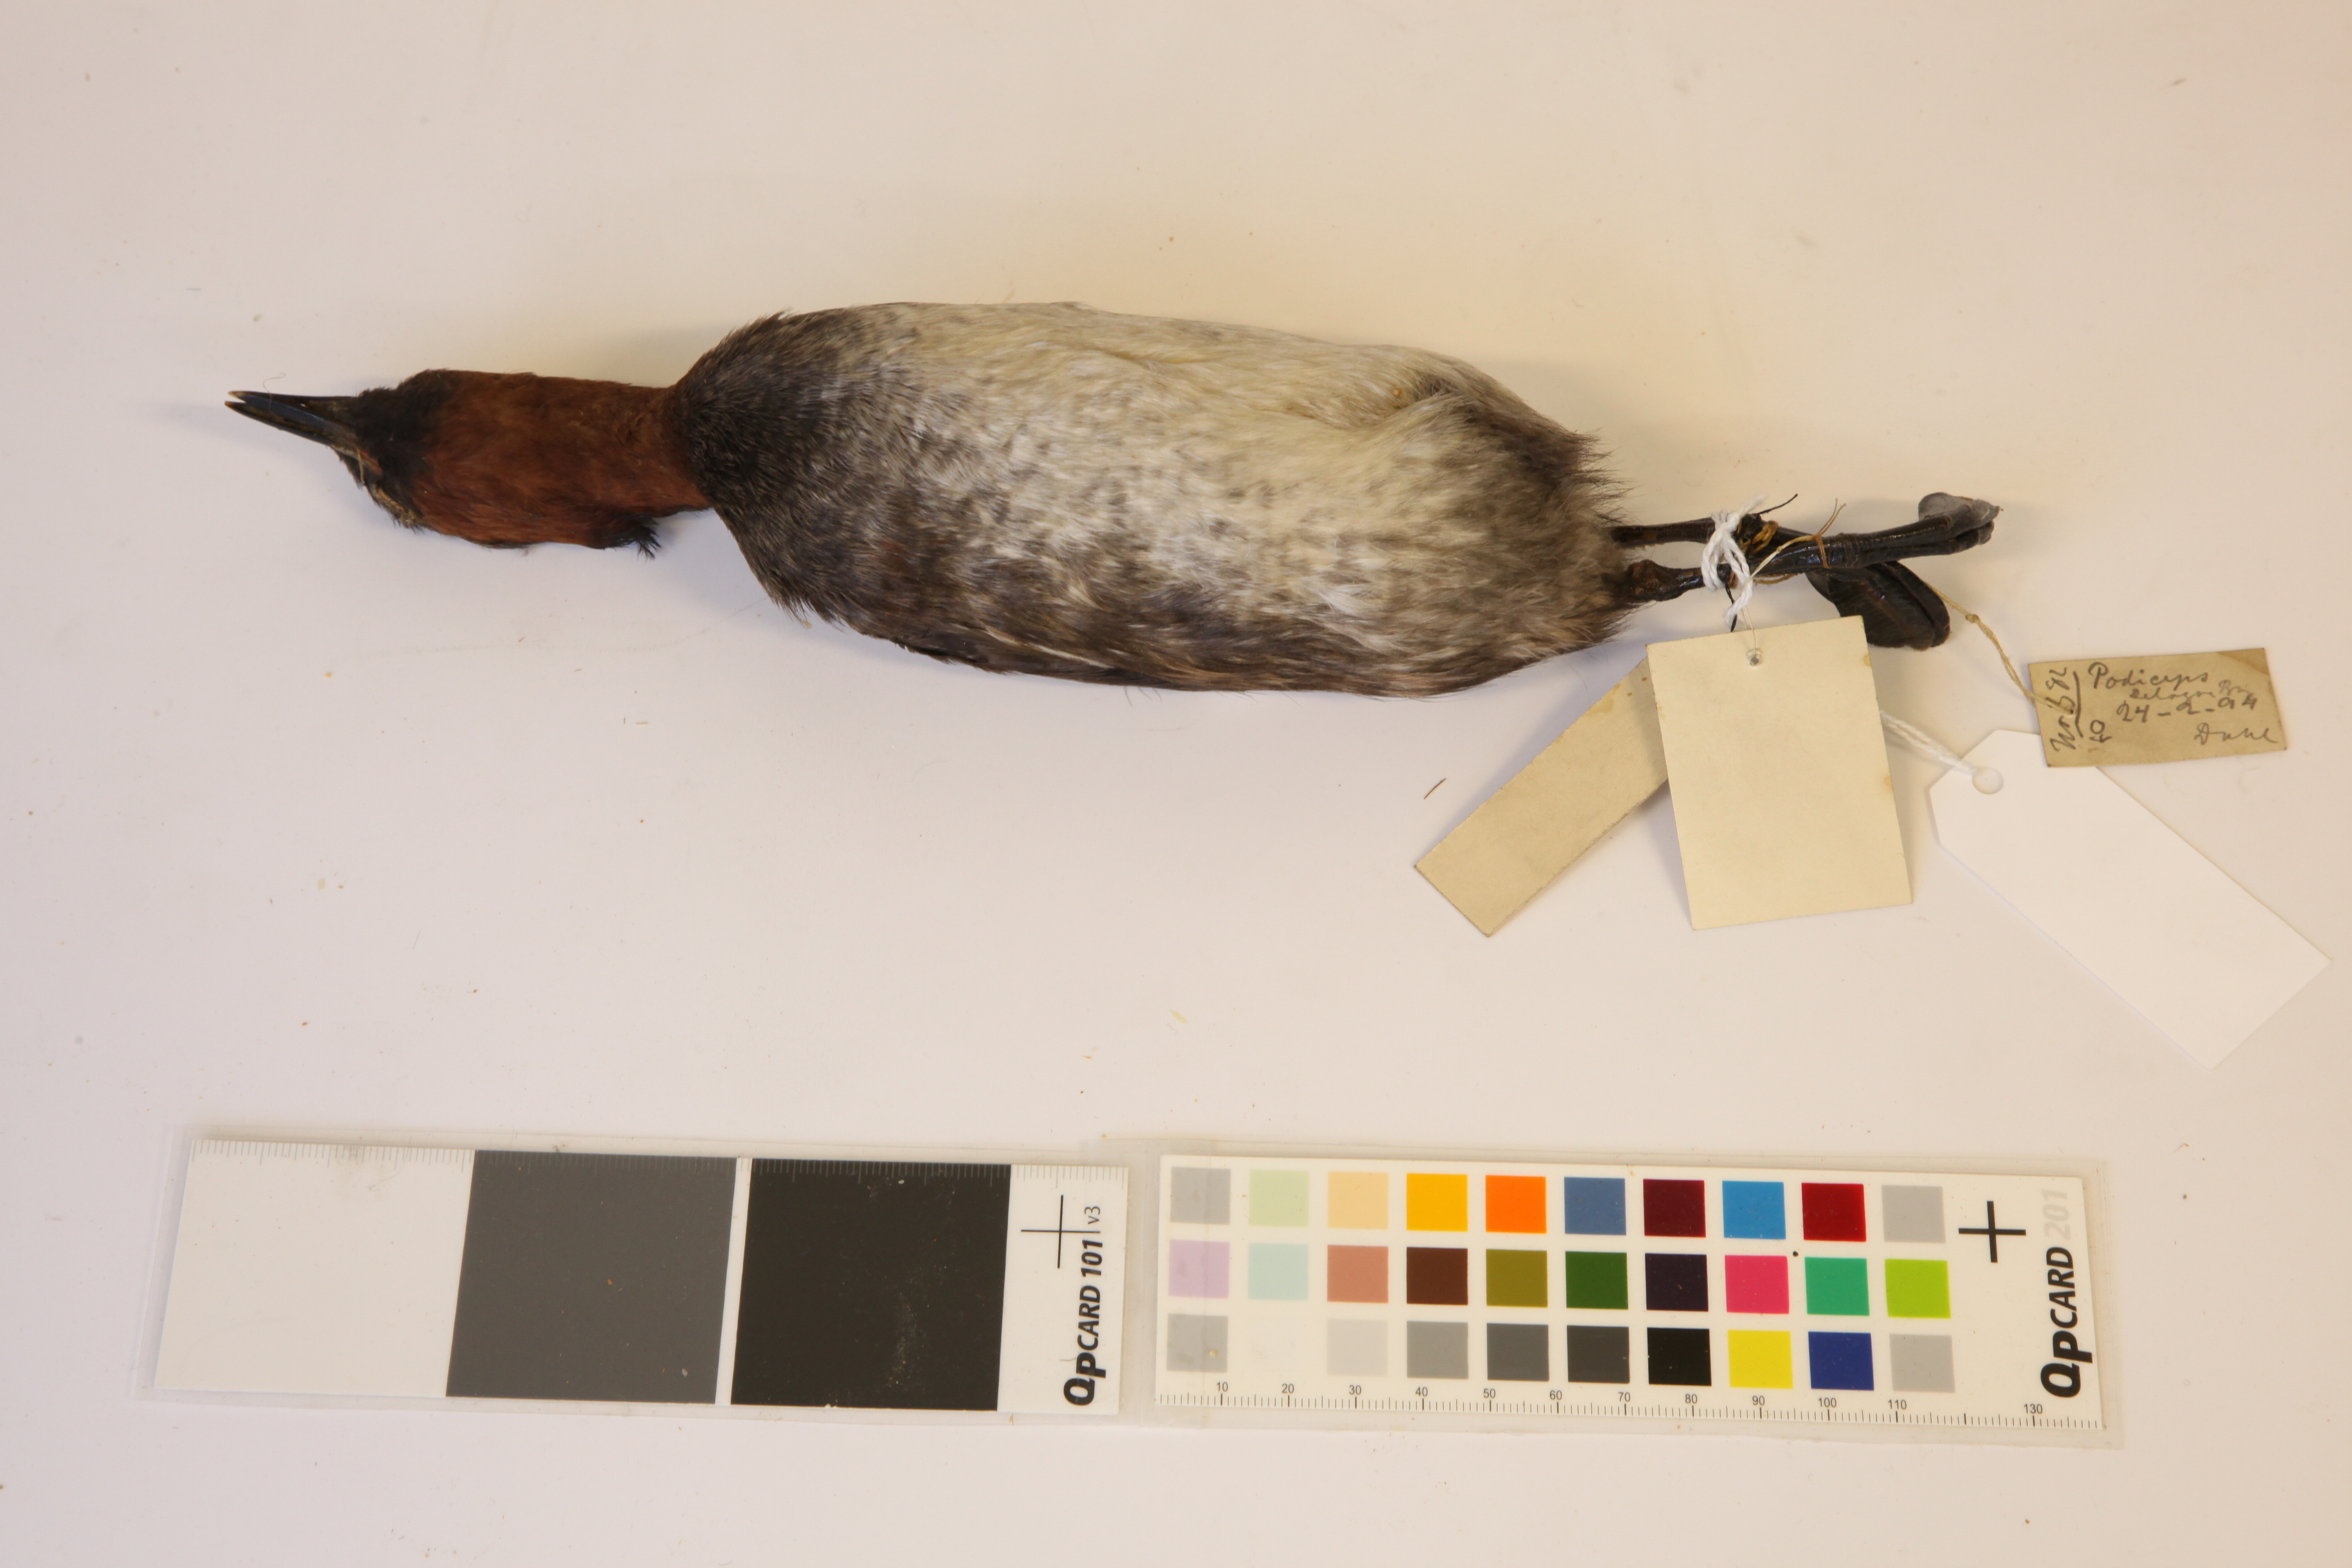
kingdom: Animalia
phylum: Chordata
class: Aves
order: Podicipediformes
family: Podicipedidae
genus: Tachybaptus
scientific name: Tachybaptus ruficollis
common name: Little grebe
